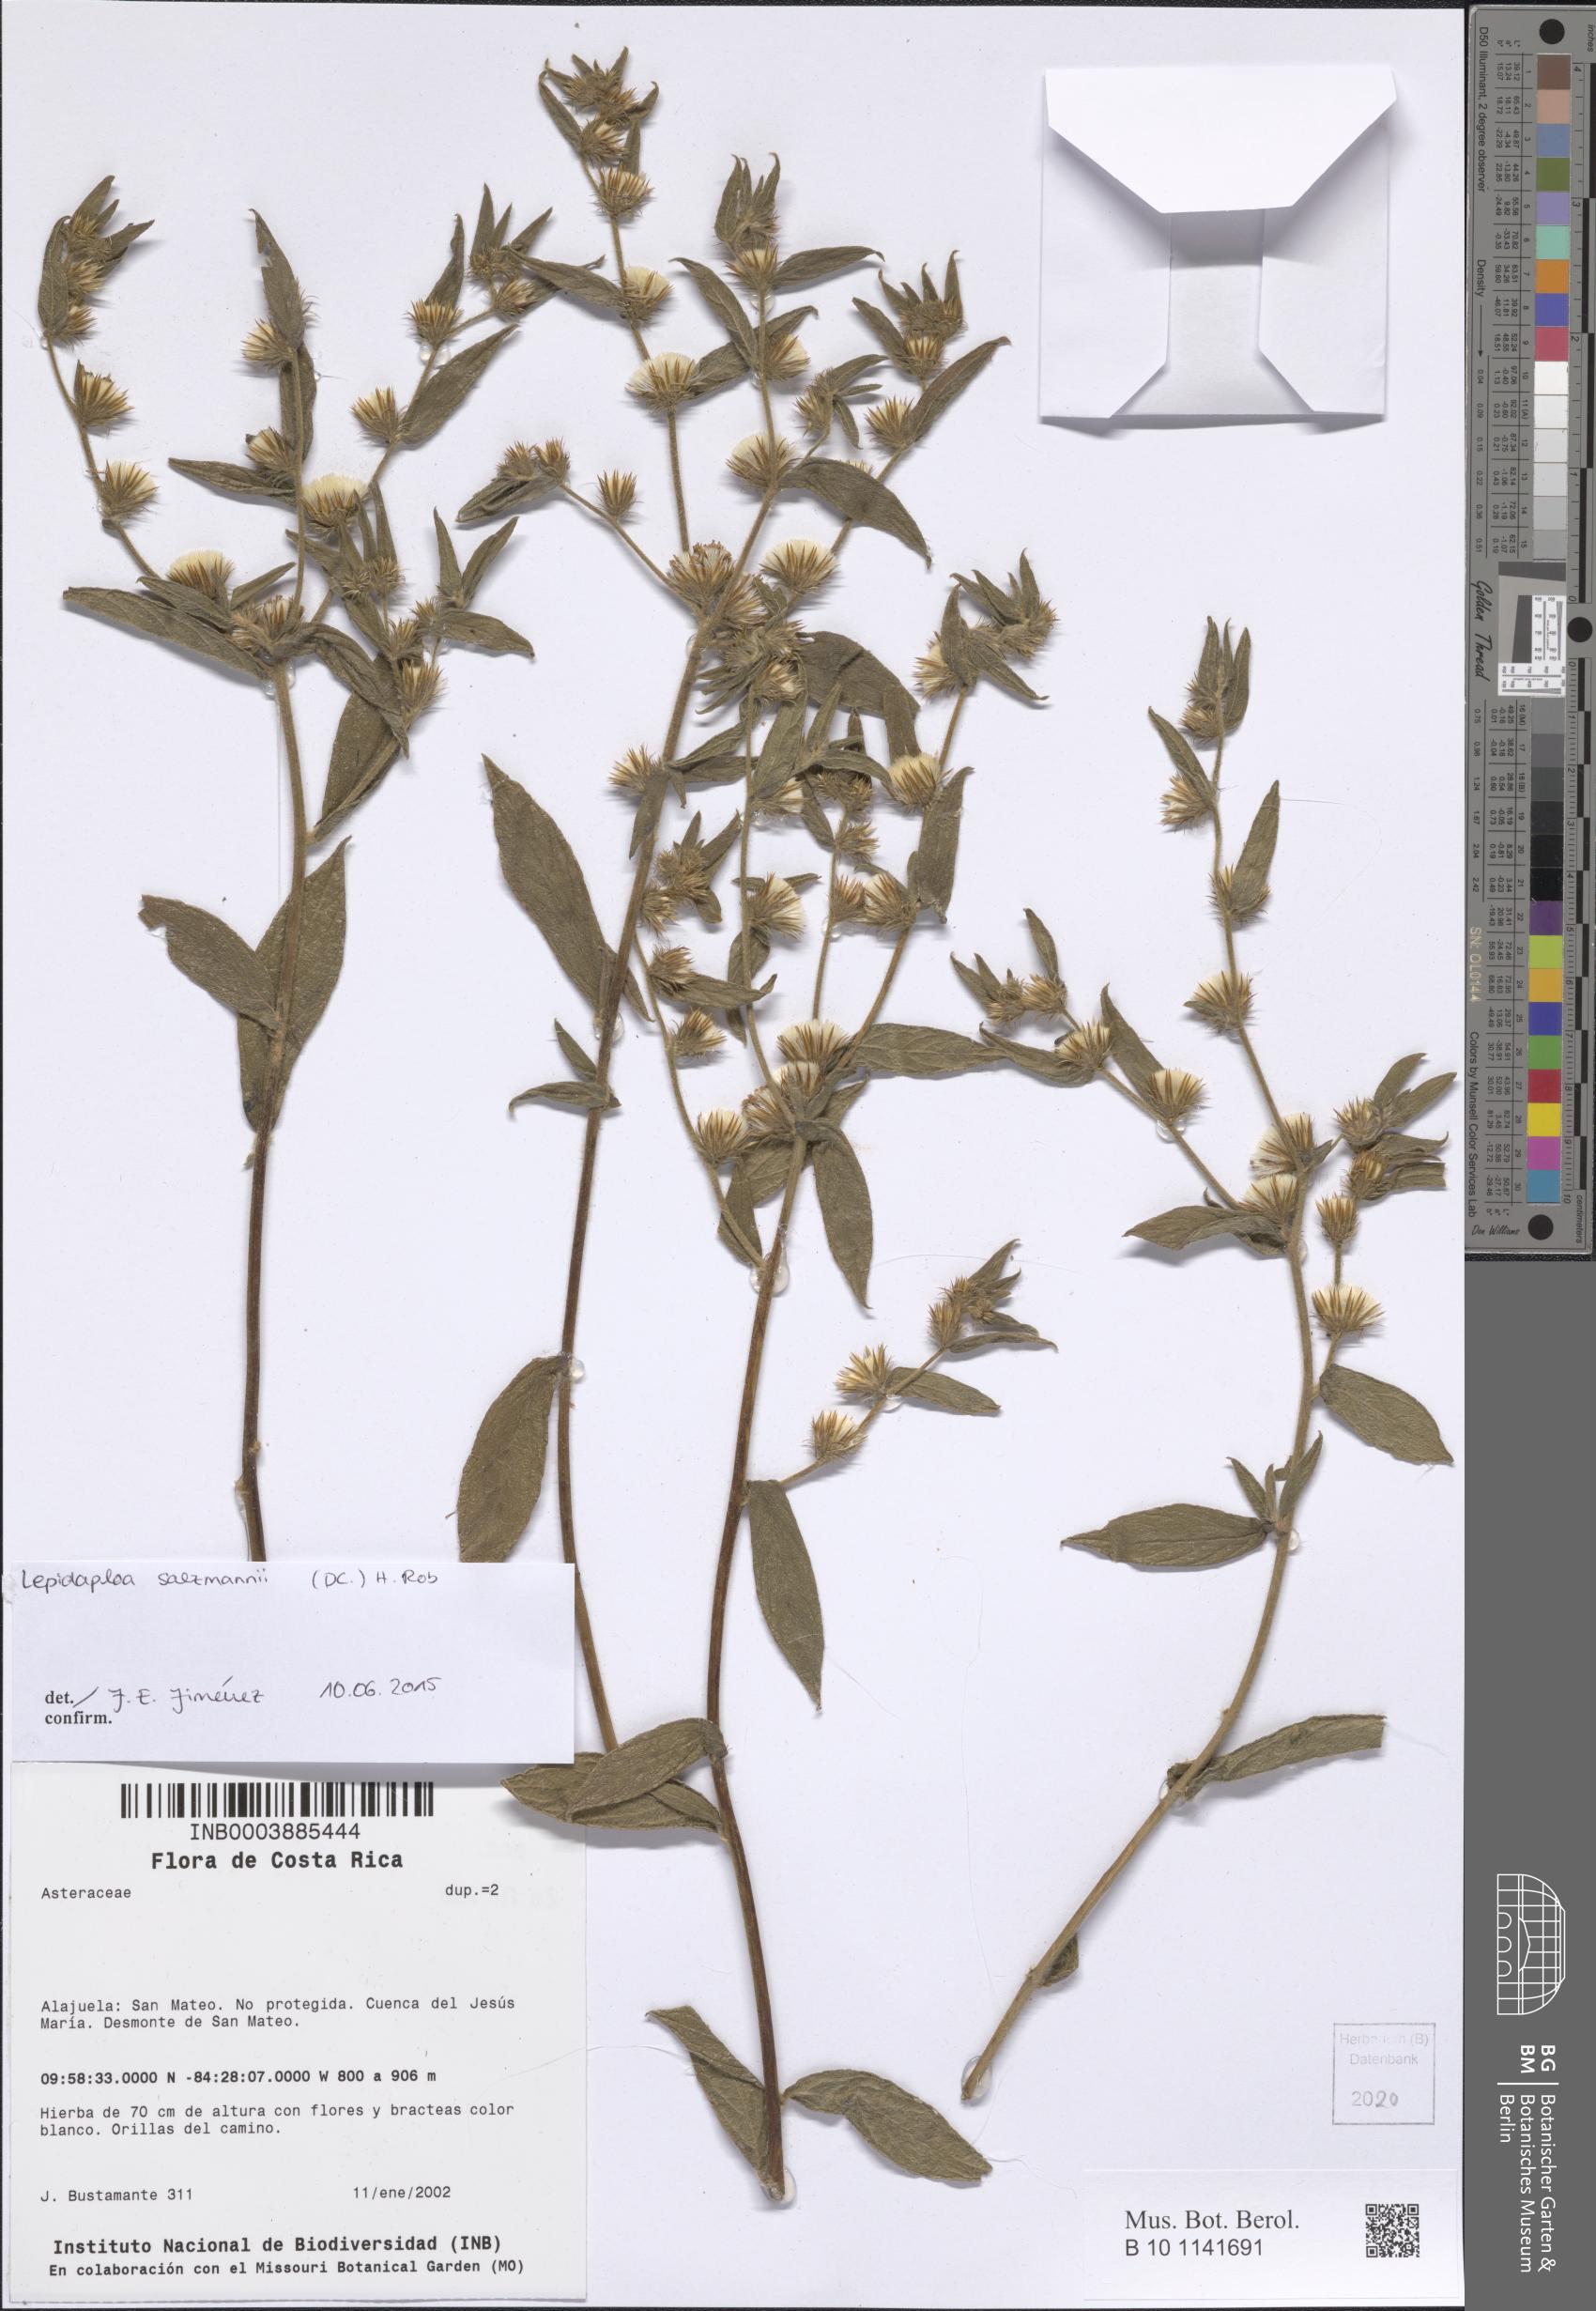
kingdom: Plantae
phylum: Tracheophyta
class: Magnoliopsida
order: Asterales
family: Asteraceae
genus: Lepidaploa
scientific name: Lepidaploa salzmannii
